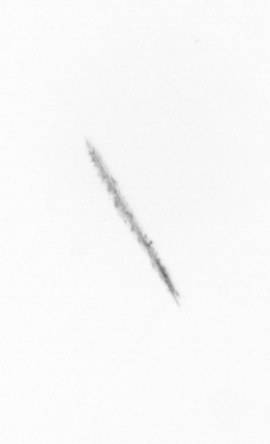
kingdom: Chromista
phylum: Ochrophyta
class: Bacillariophyceae
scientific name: Bacillariophyceae
